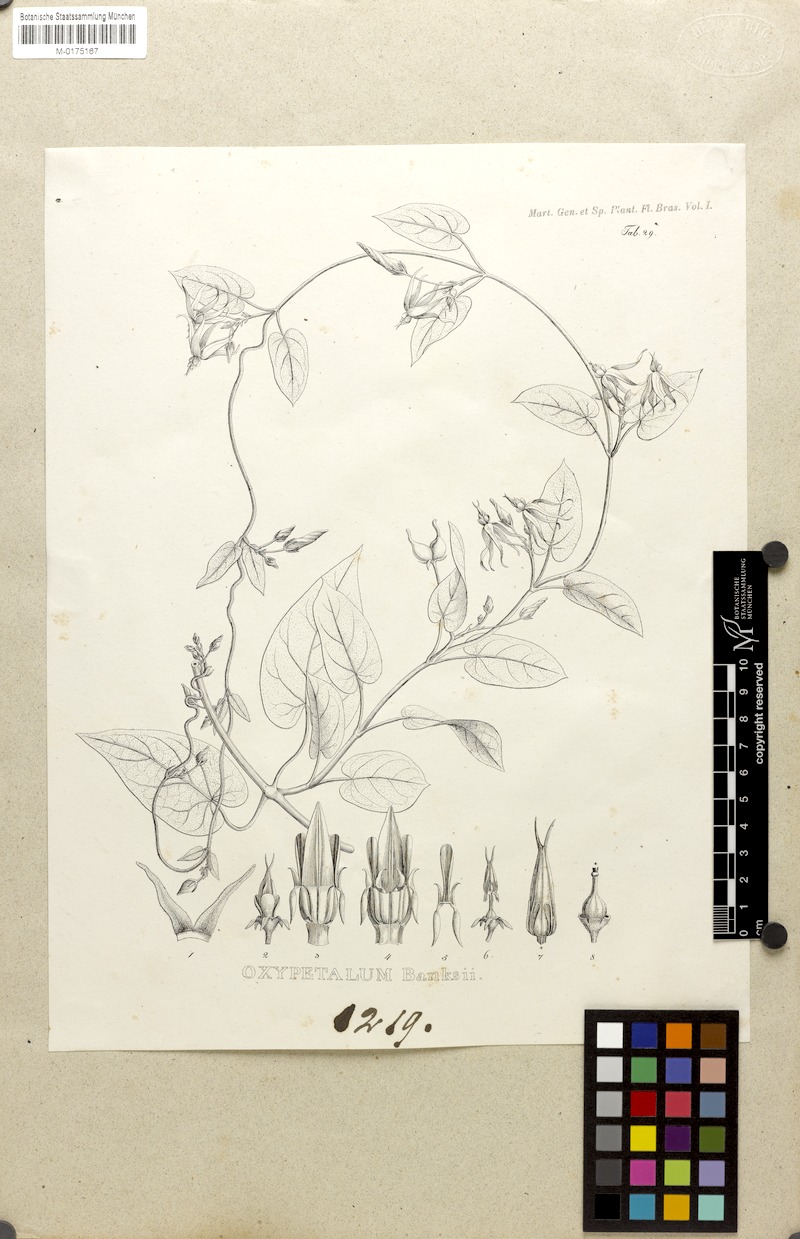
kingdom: Plantae
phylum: Tracheophyta
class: Magnoliopsida
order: Gentianales
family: Apocynaceae
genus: Oxypetalum
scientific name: Oxypetalum banksii
